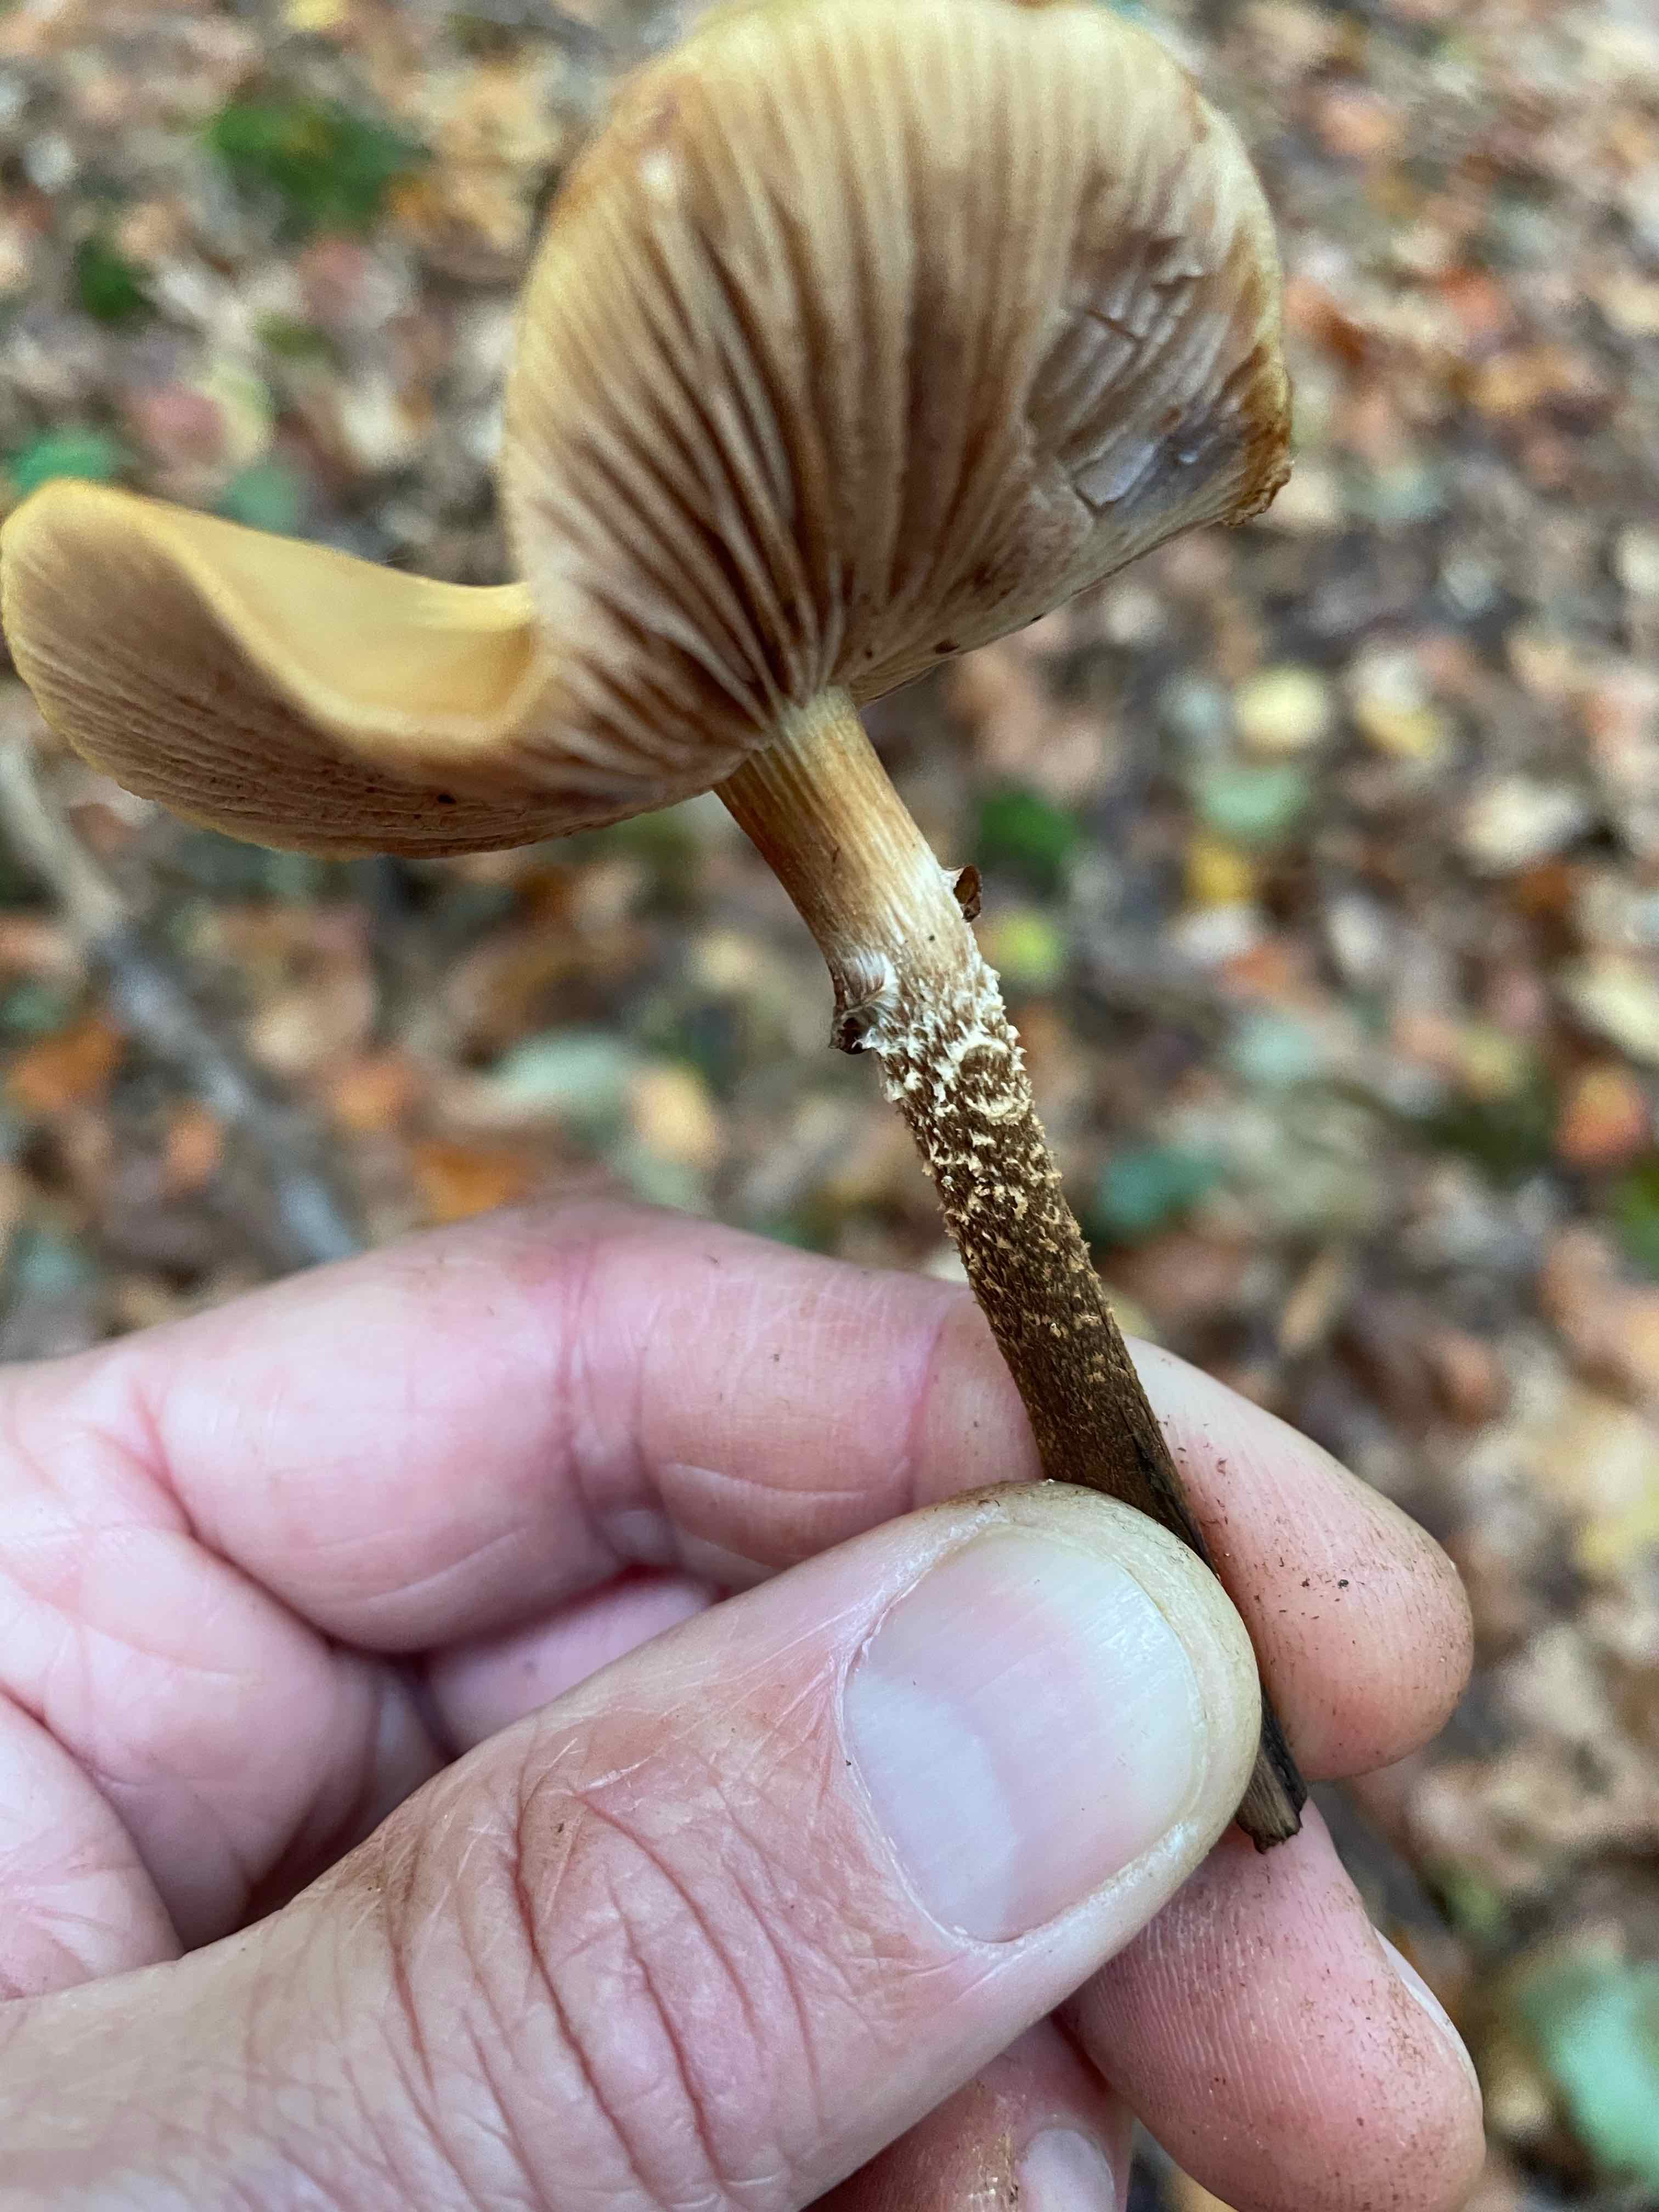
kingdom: Fungi
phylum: Basidiomycota
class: Agaricomycetes
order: Agaricales
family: Strophariaceae
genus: Kuehneromyces
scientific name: Kuehneromyces mutabilis
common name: foranderlig skælhat
